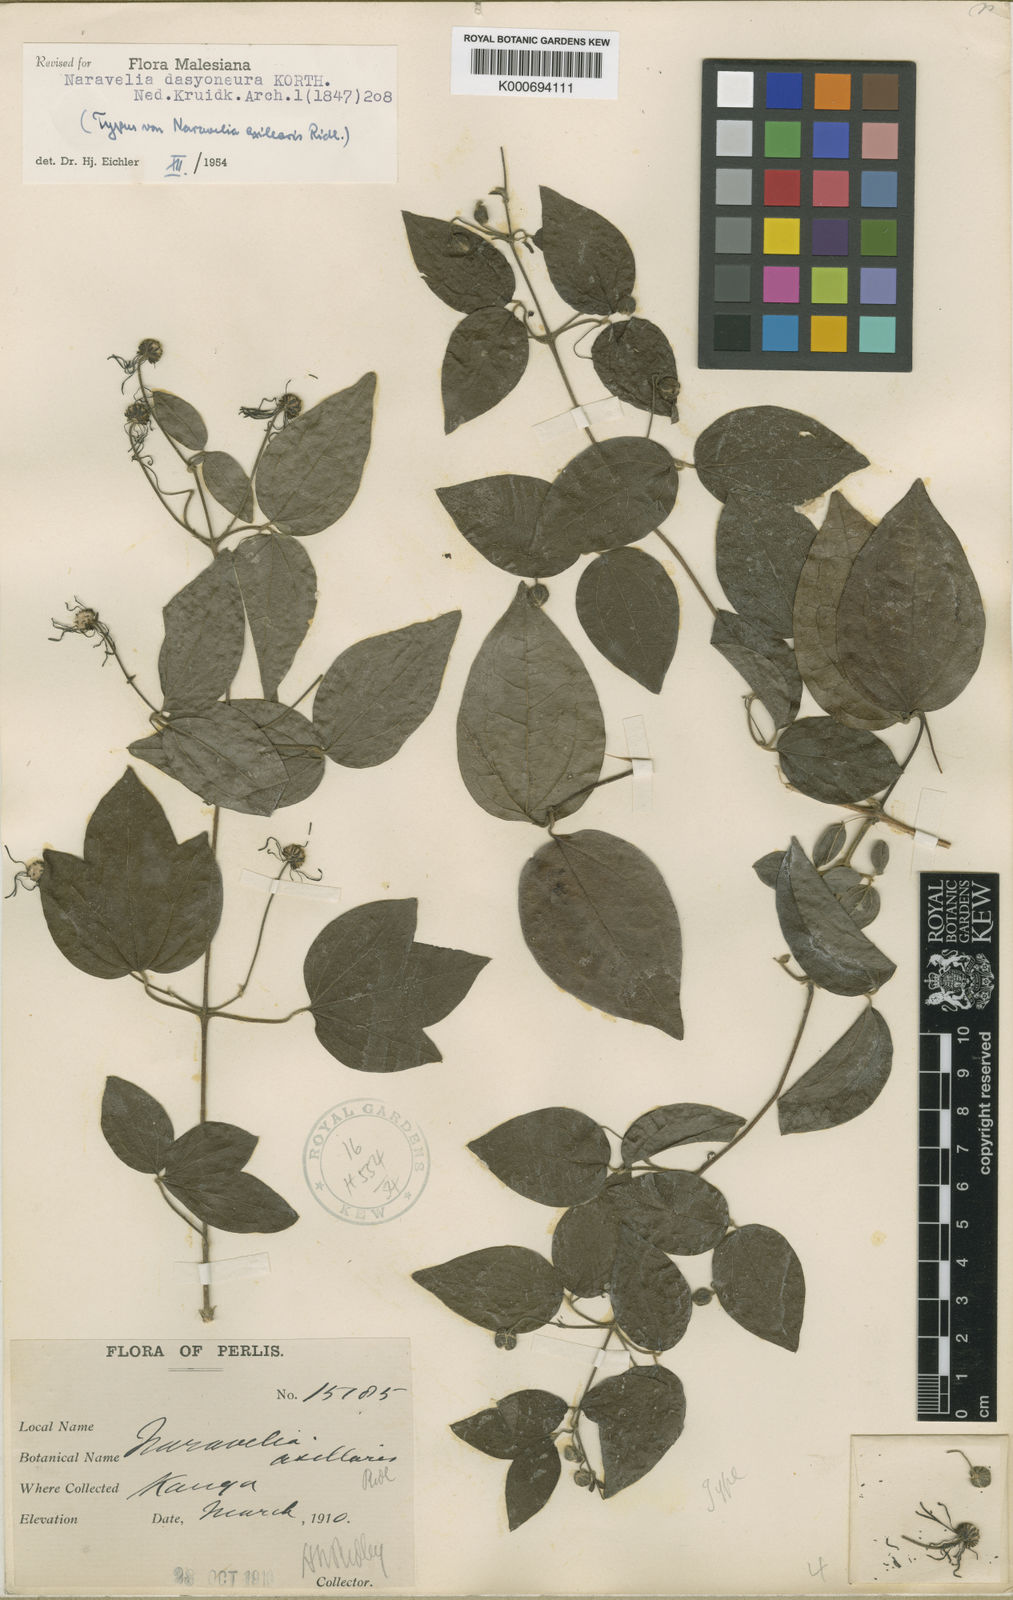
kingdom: Plantae
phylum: Tracheophyta
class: Magnoliopsida
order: Ranunculales
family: Ranunculaceae
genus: Clematis
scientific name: Clematis dasyoneura
